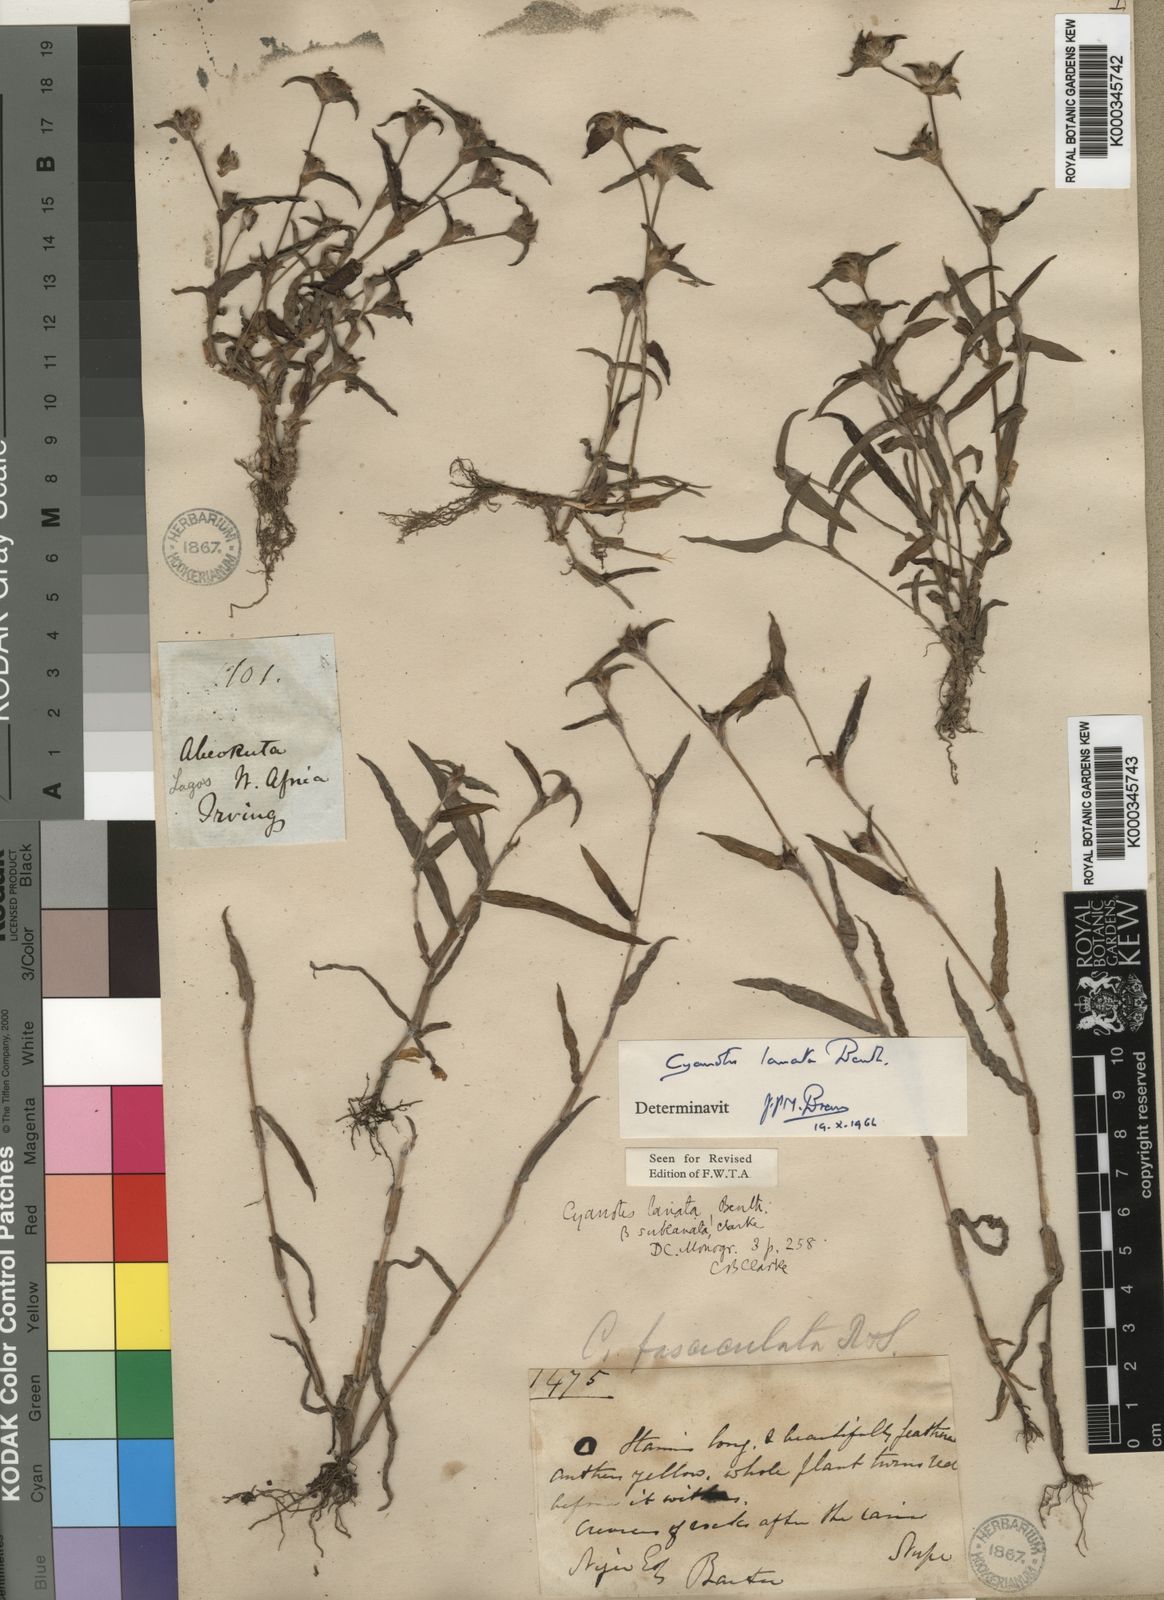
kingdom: Plantae
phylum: Tracheophyta
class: Liliopsida
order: Commelinales
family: Commelinaceae
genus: Cyanotis
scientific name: Cyanotis lanata
